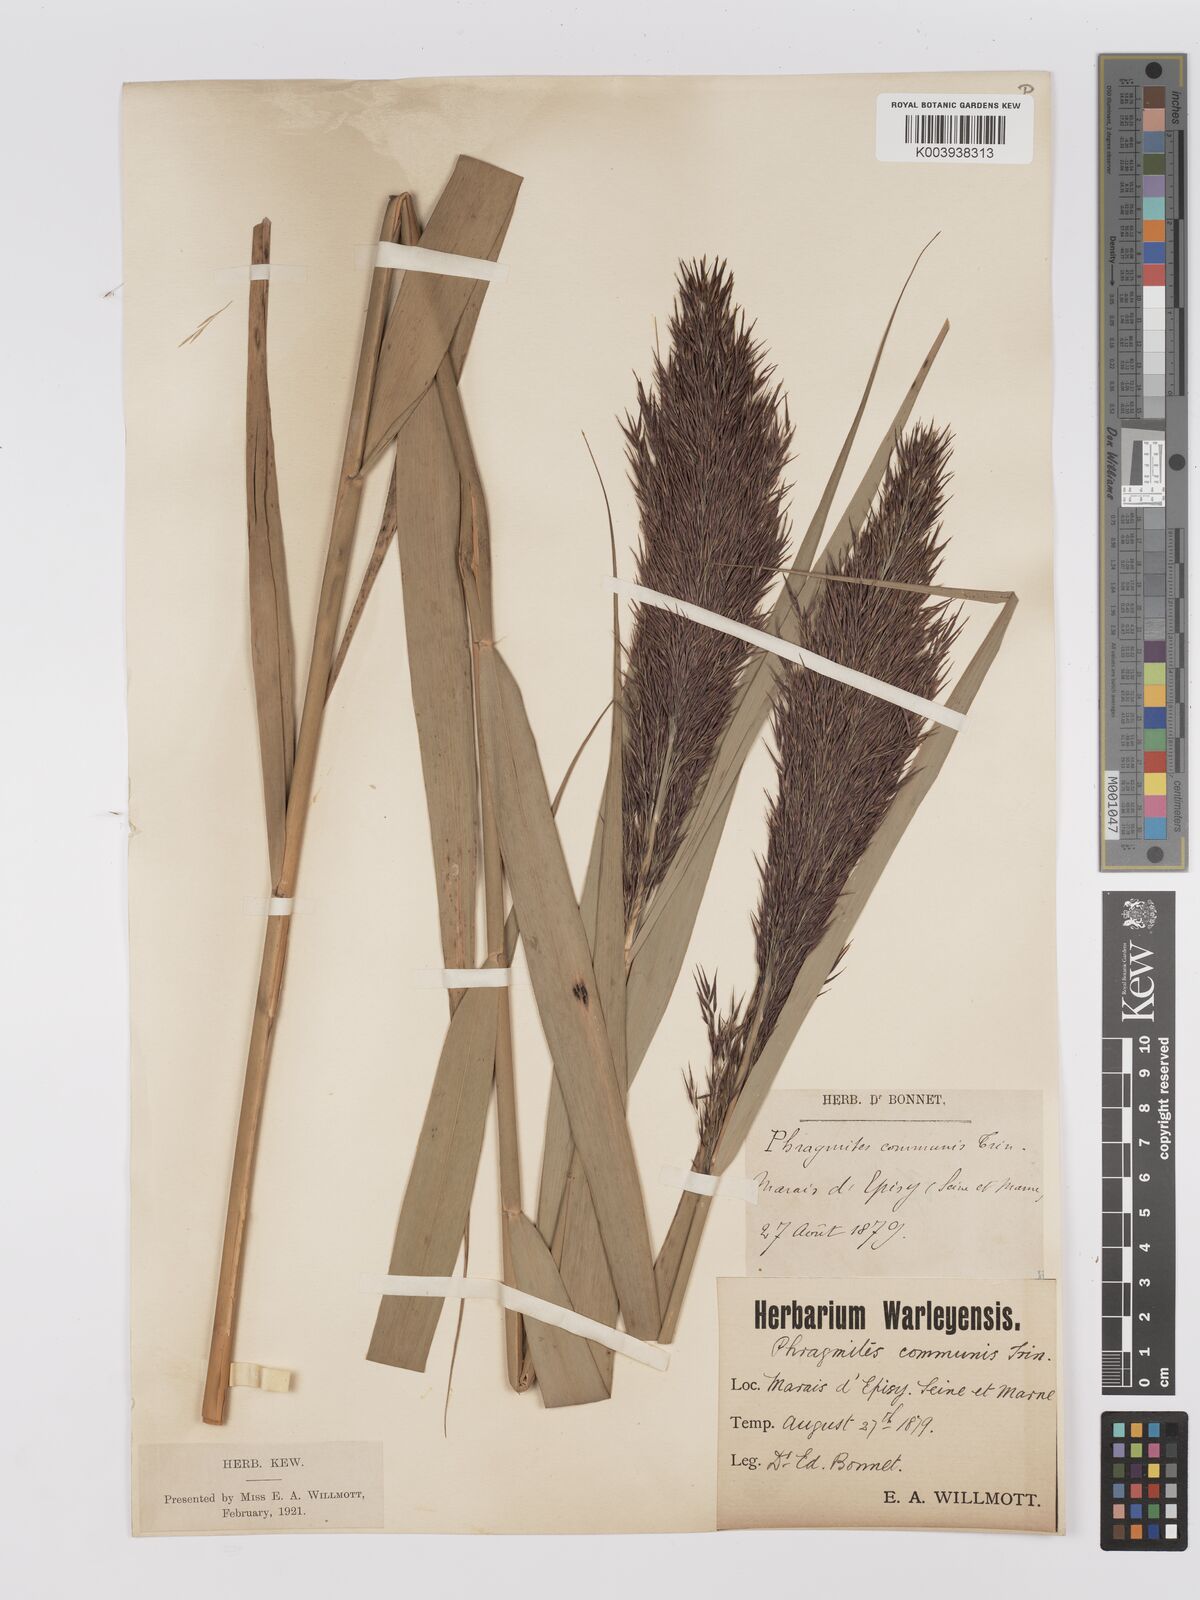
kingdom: Plantae
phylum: Tracheophyta
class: Liliopsida
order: Poales
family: Poaceae
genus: Phragmites
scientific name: Phragmites australis
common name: Common reed
